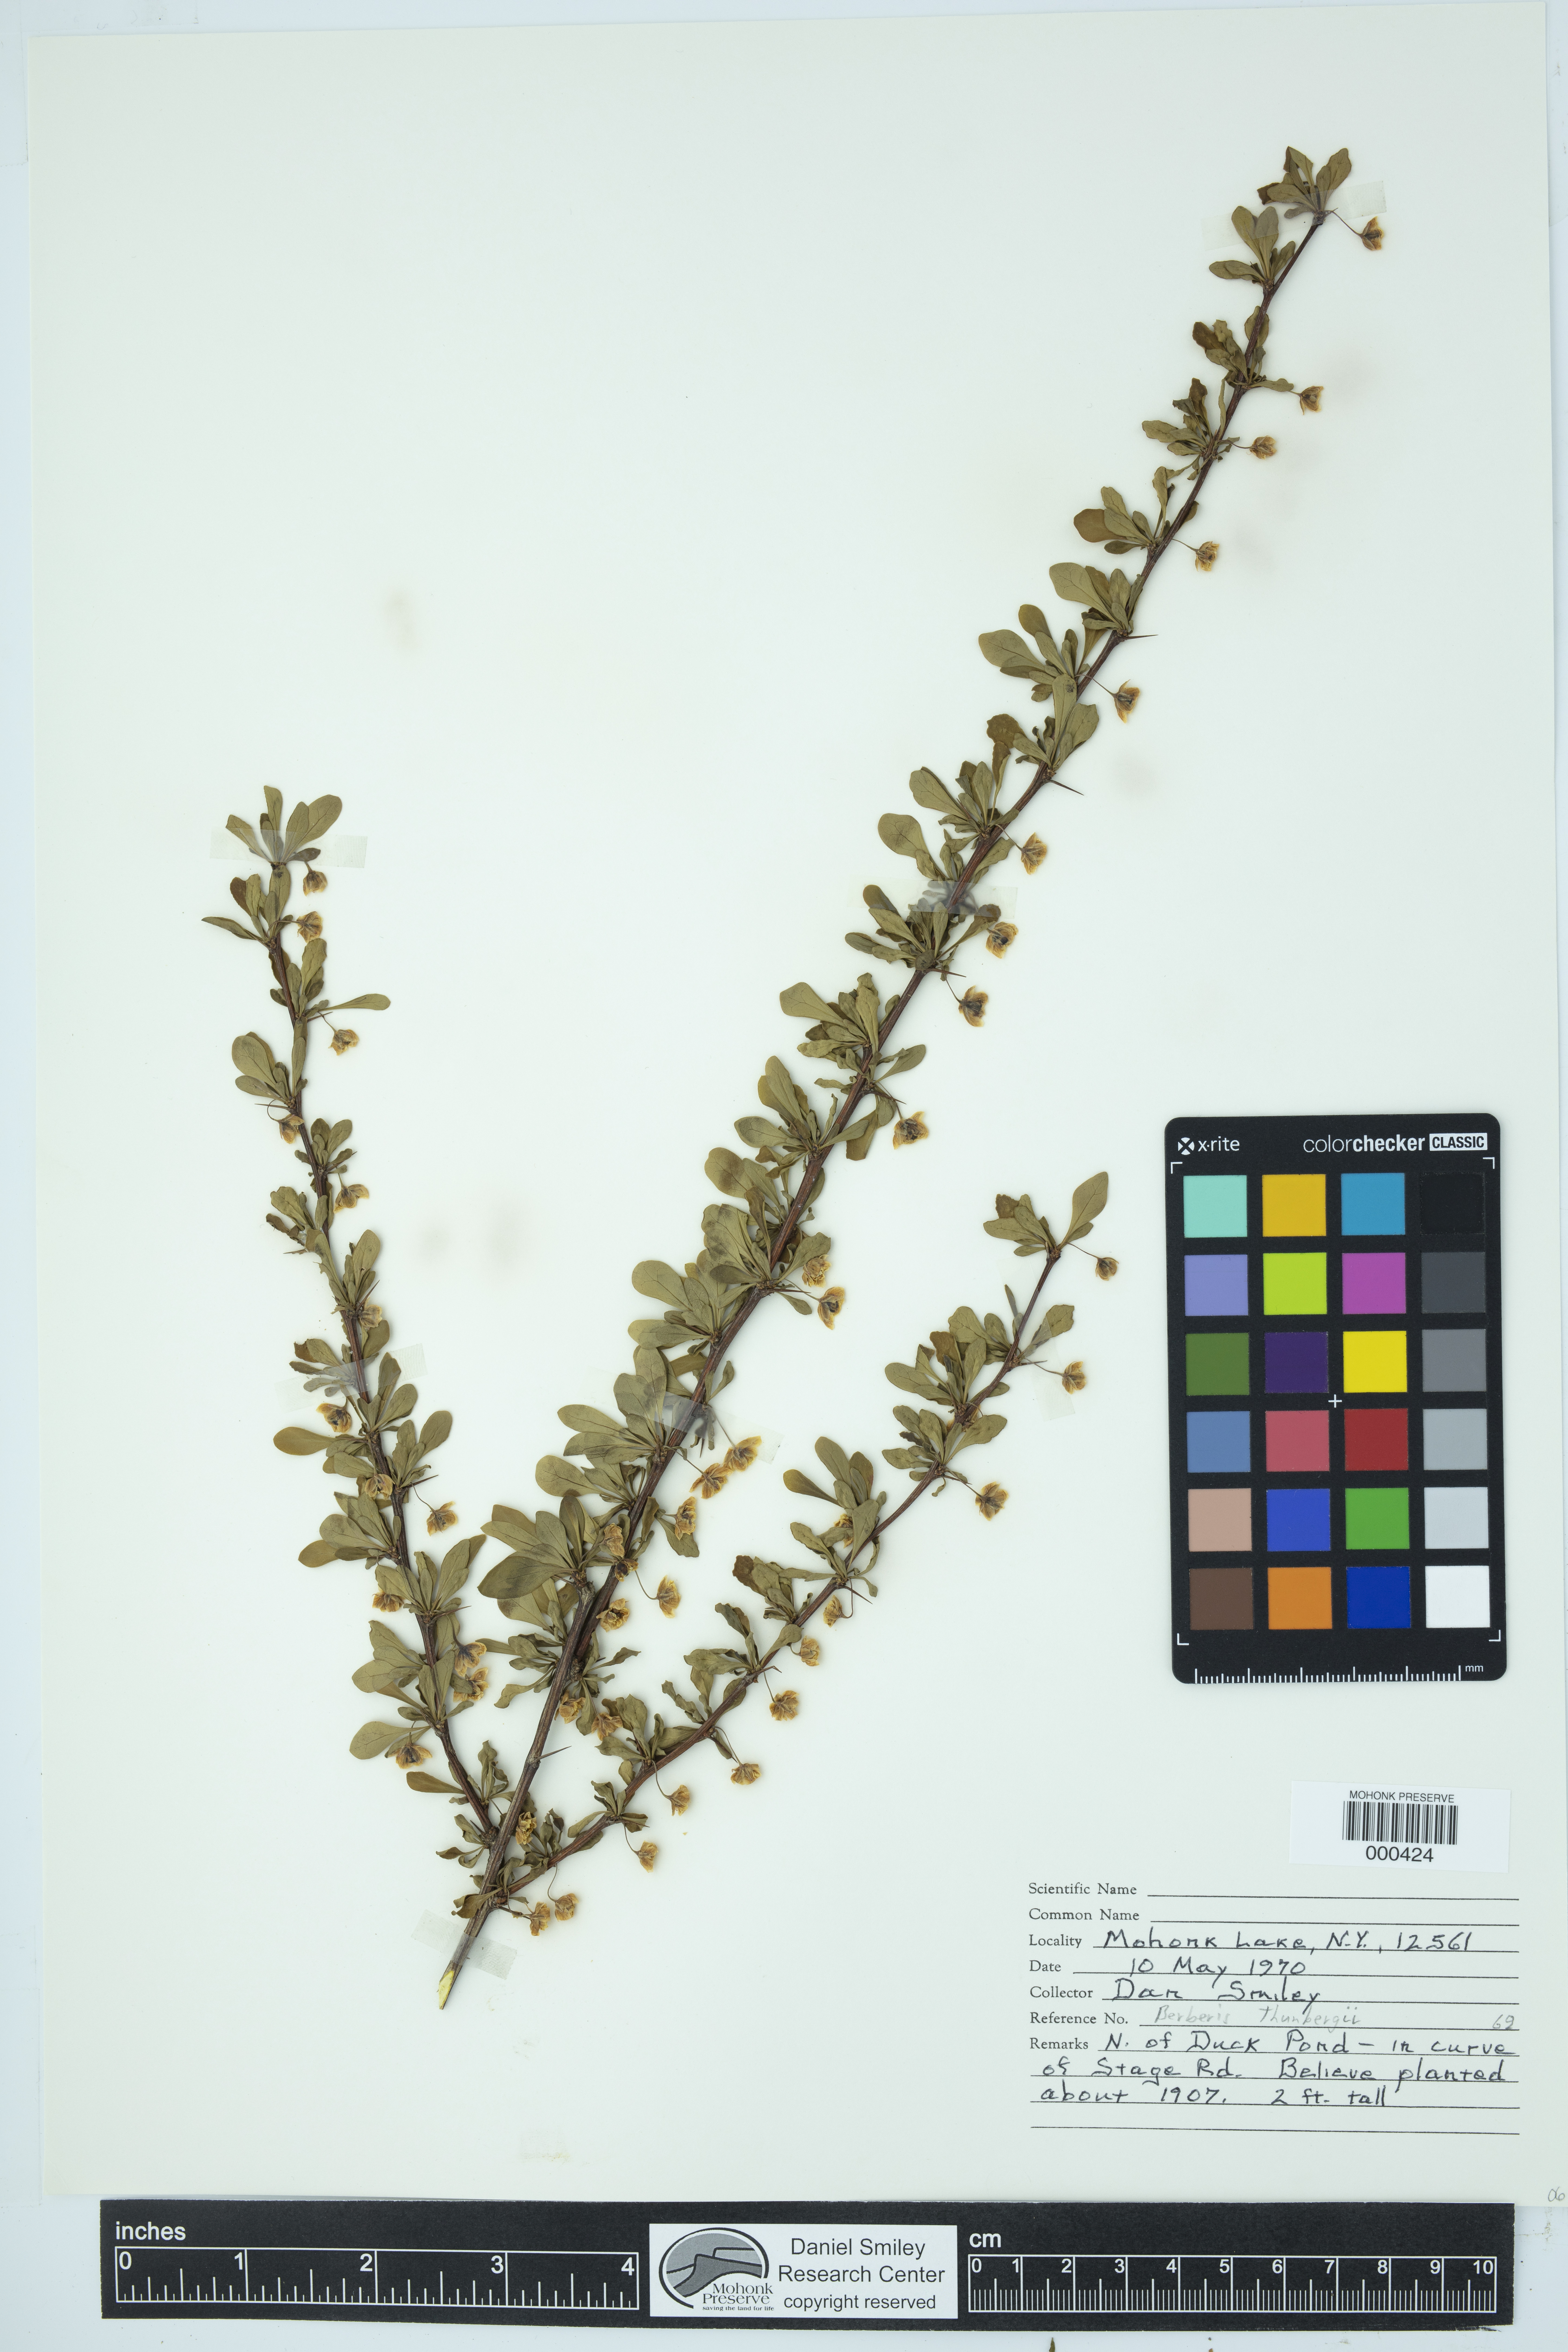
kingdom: Plantae
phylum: Tracheophyta
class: Magnoliopsida
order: Ranunculales
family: Berberidaceae
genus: Berberis
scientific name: Berberis thunbergii
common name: Japanese barberry
